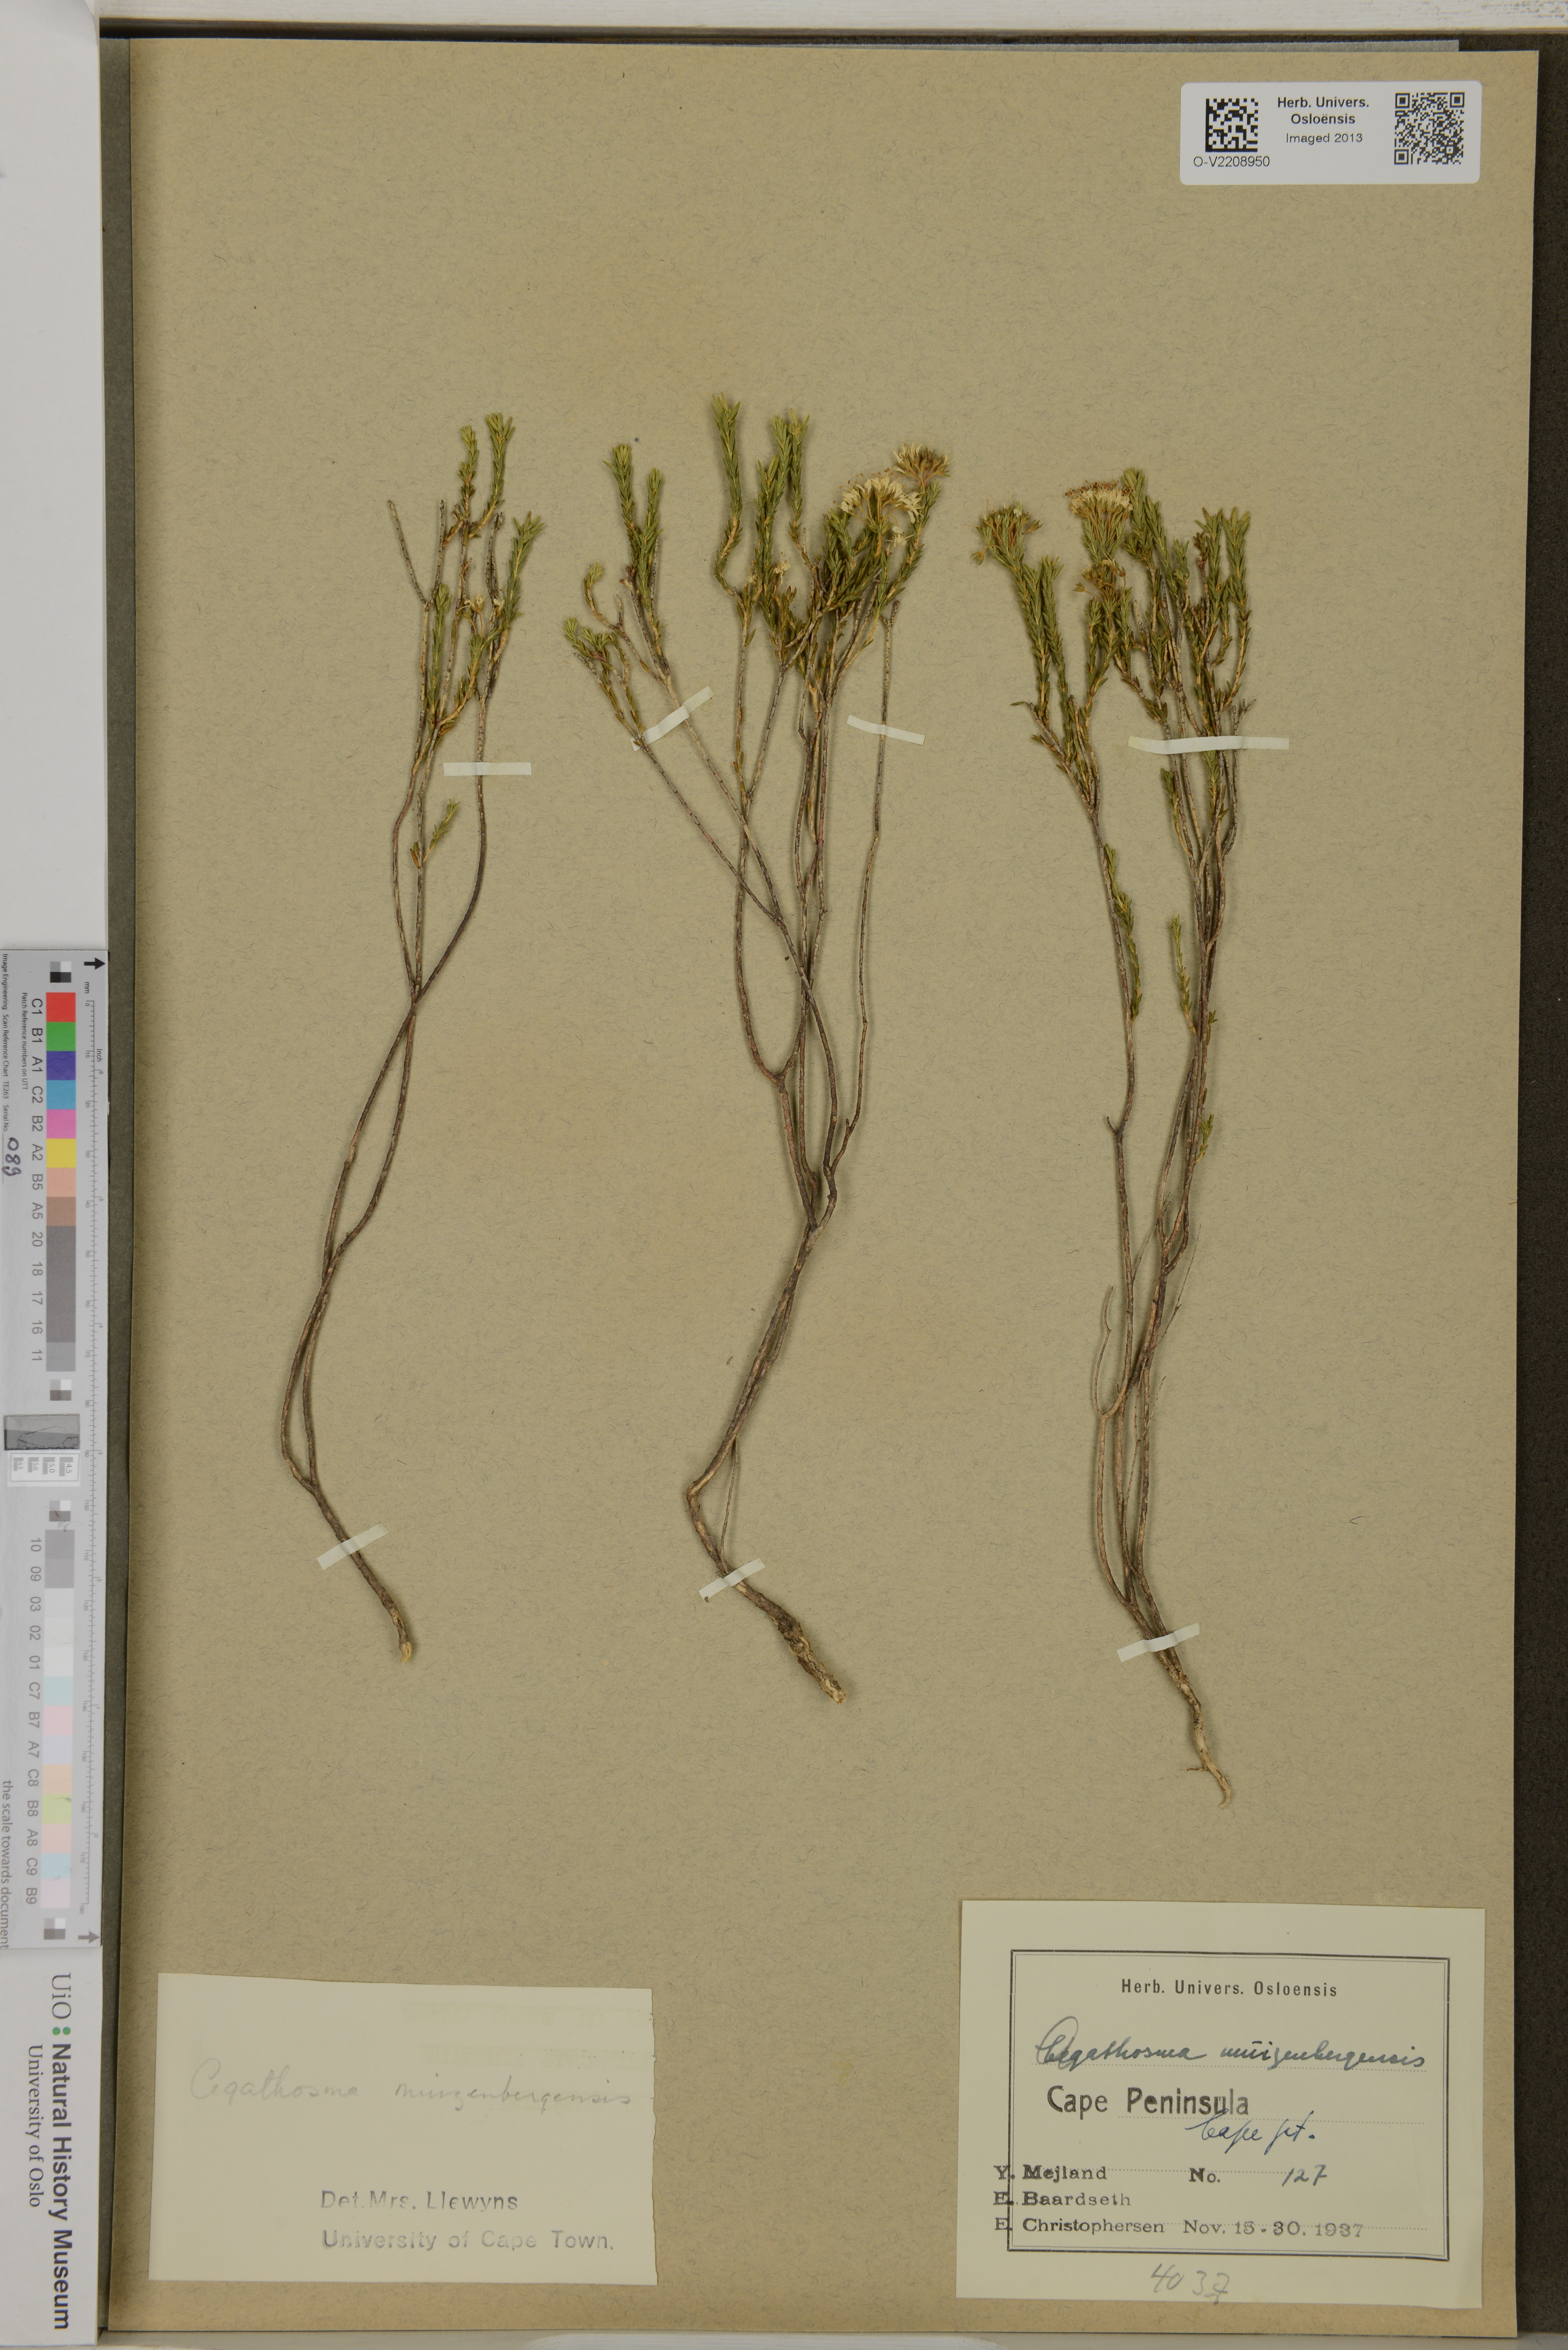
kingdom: Plantae
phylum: Tracheophyta
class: Magnoliopsida
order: Sapindales
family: Rutaceae
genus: Agathosma
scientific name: Agathosma capensis
